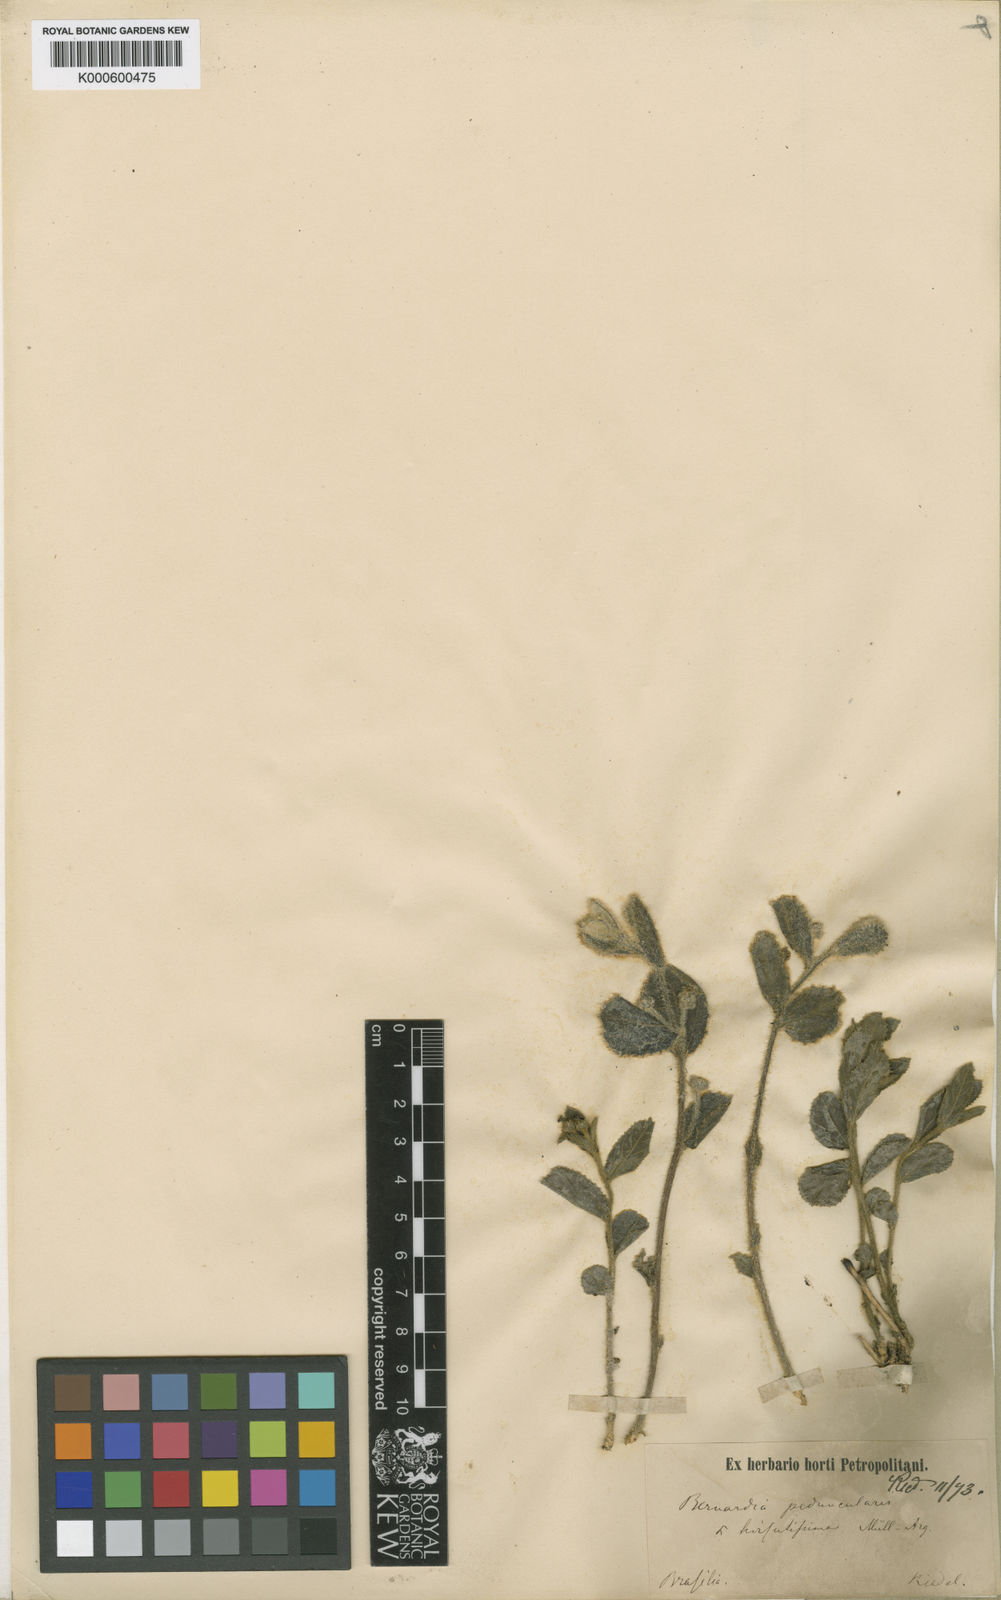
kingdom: Plantae
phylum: Tracheophyta
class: Magnoliopsida
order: Malpighiales
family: Euphorbiaceae
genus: Bernardia
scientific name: Bernardia
